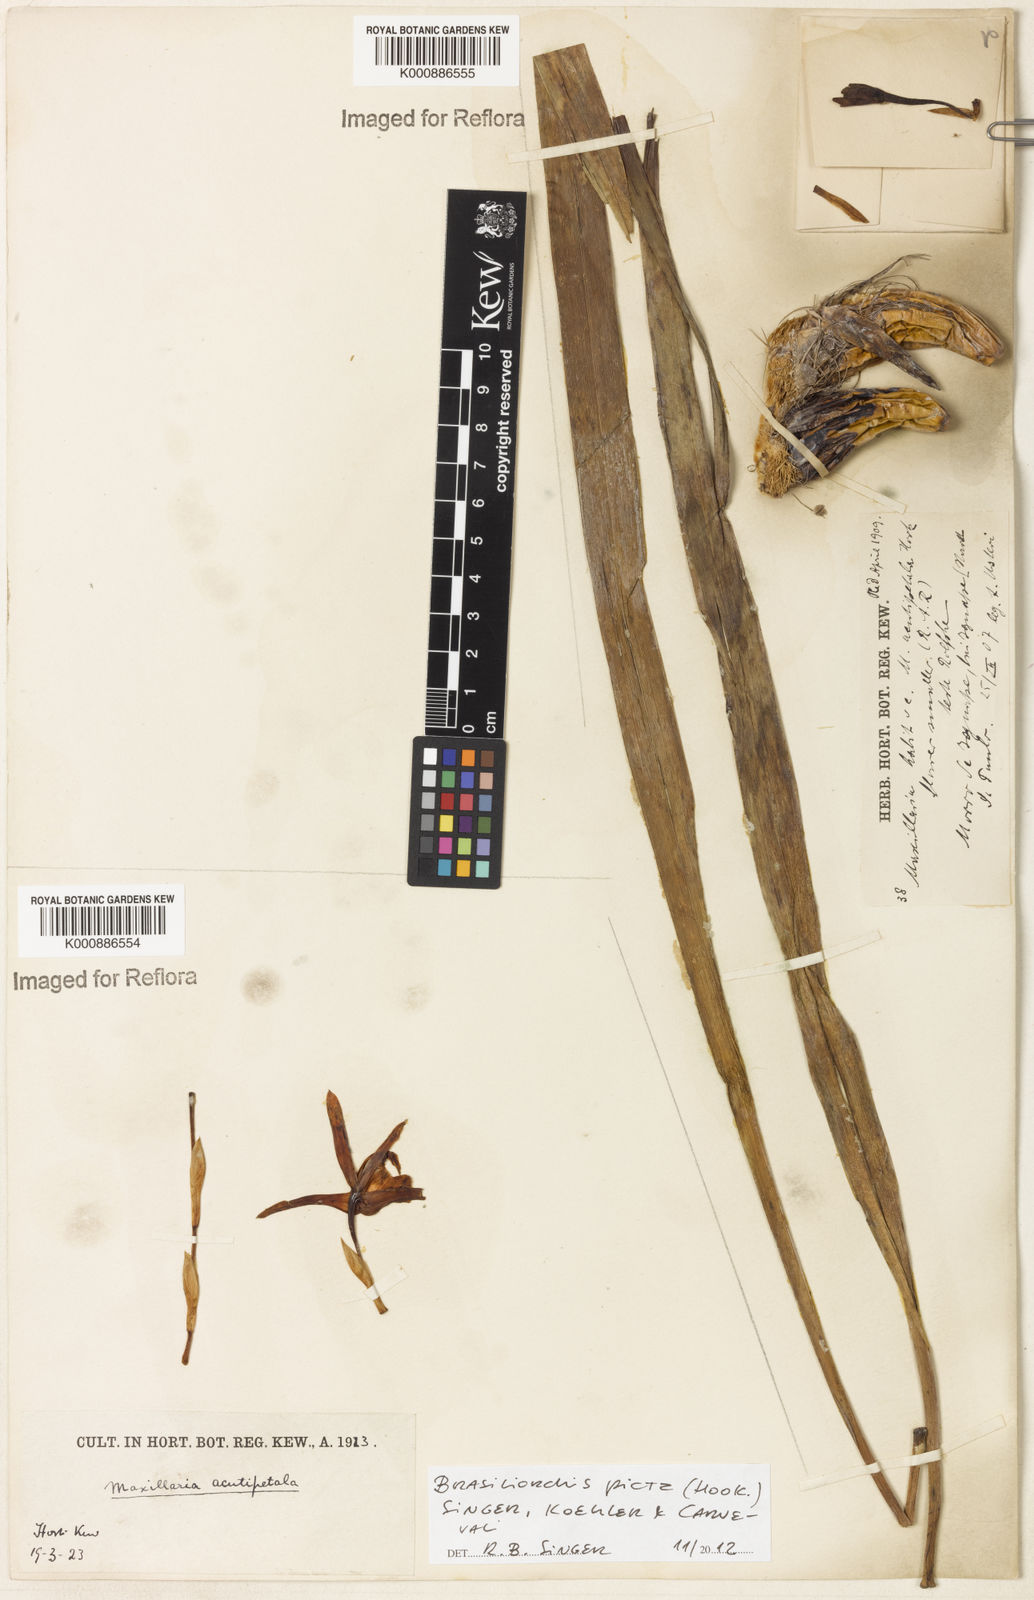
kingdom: Plantae
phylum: Tracheophyta
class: Liliopsida
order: Asparagales
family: Orchidaceae
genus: Maxillaria
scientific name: Maxillaria picta
